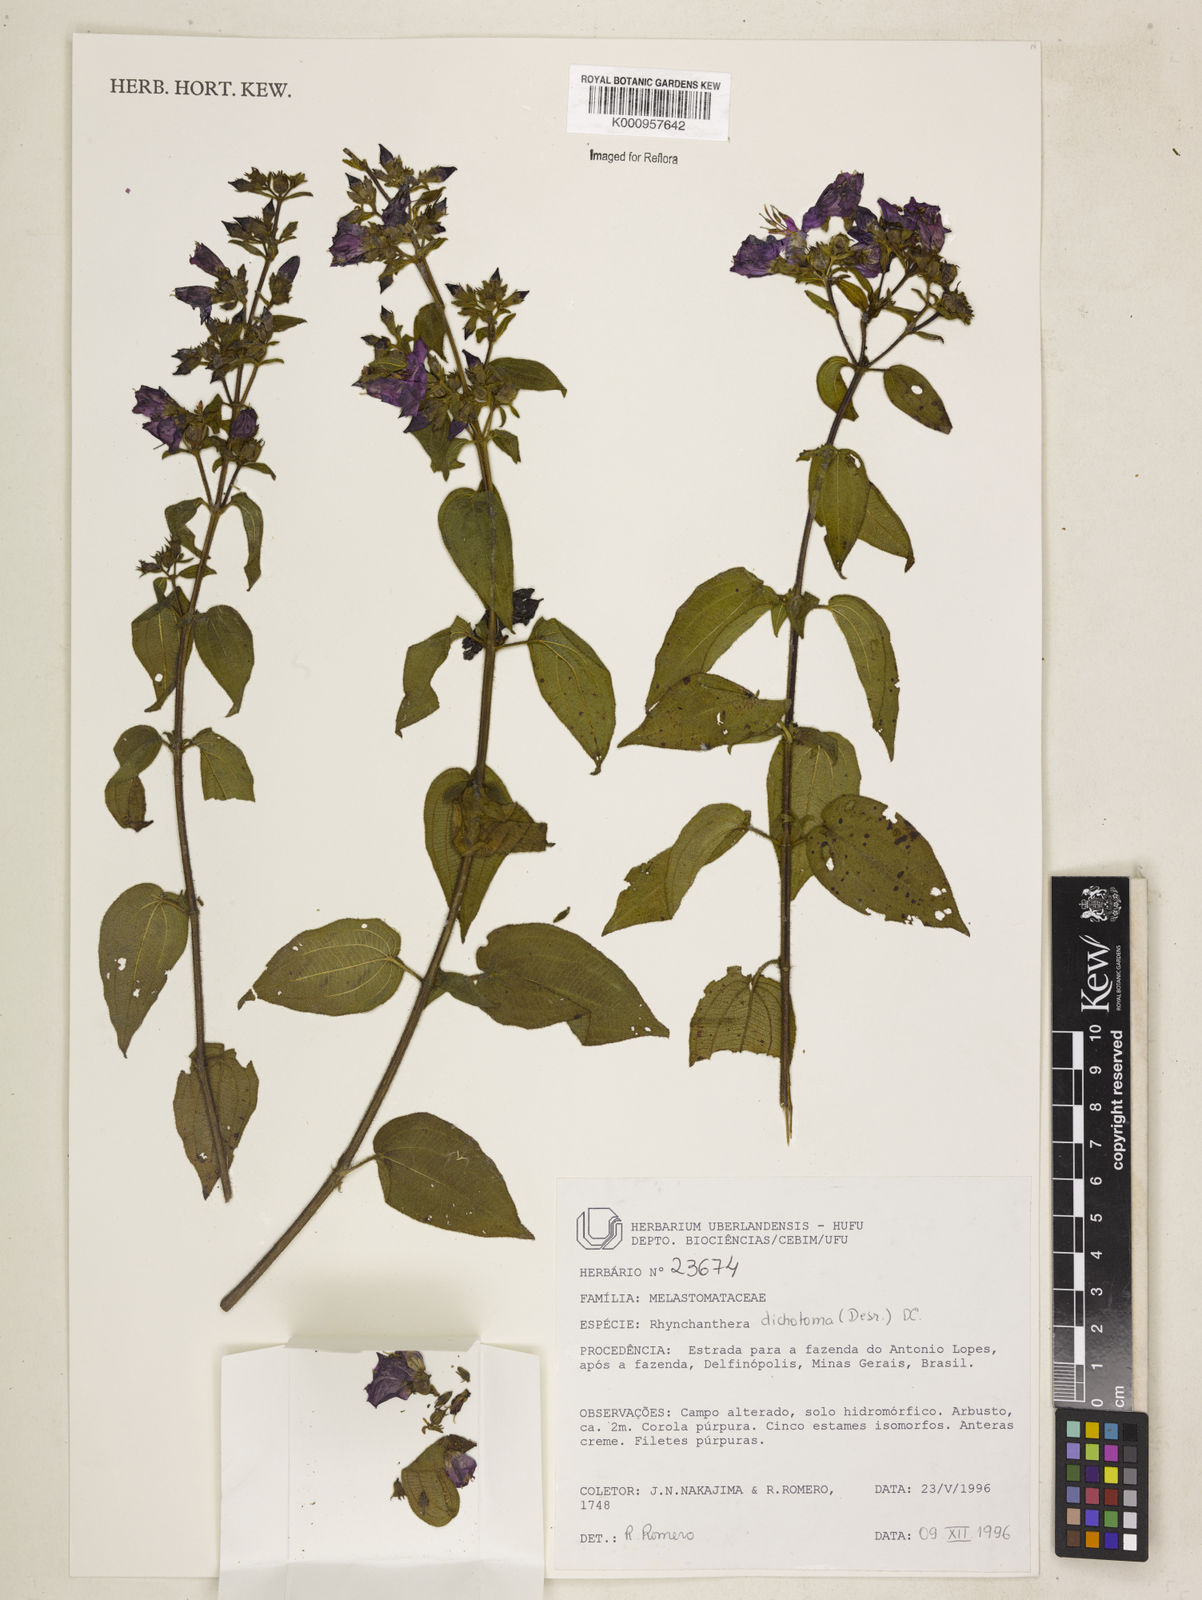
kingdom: Plantae
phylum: Tracheophyta
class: Magnoliopsida
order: Myrtales
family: Melastomataceae
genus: Rhynchanthera
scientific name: Rhynchanthera dichotoma
